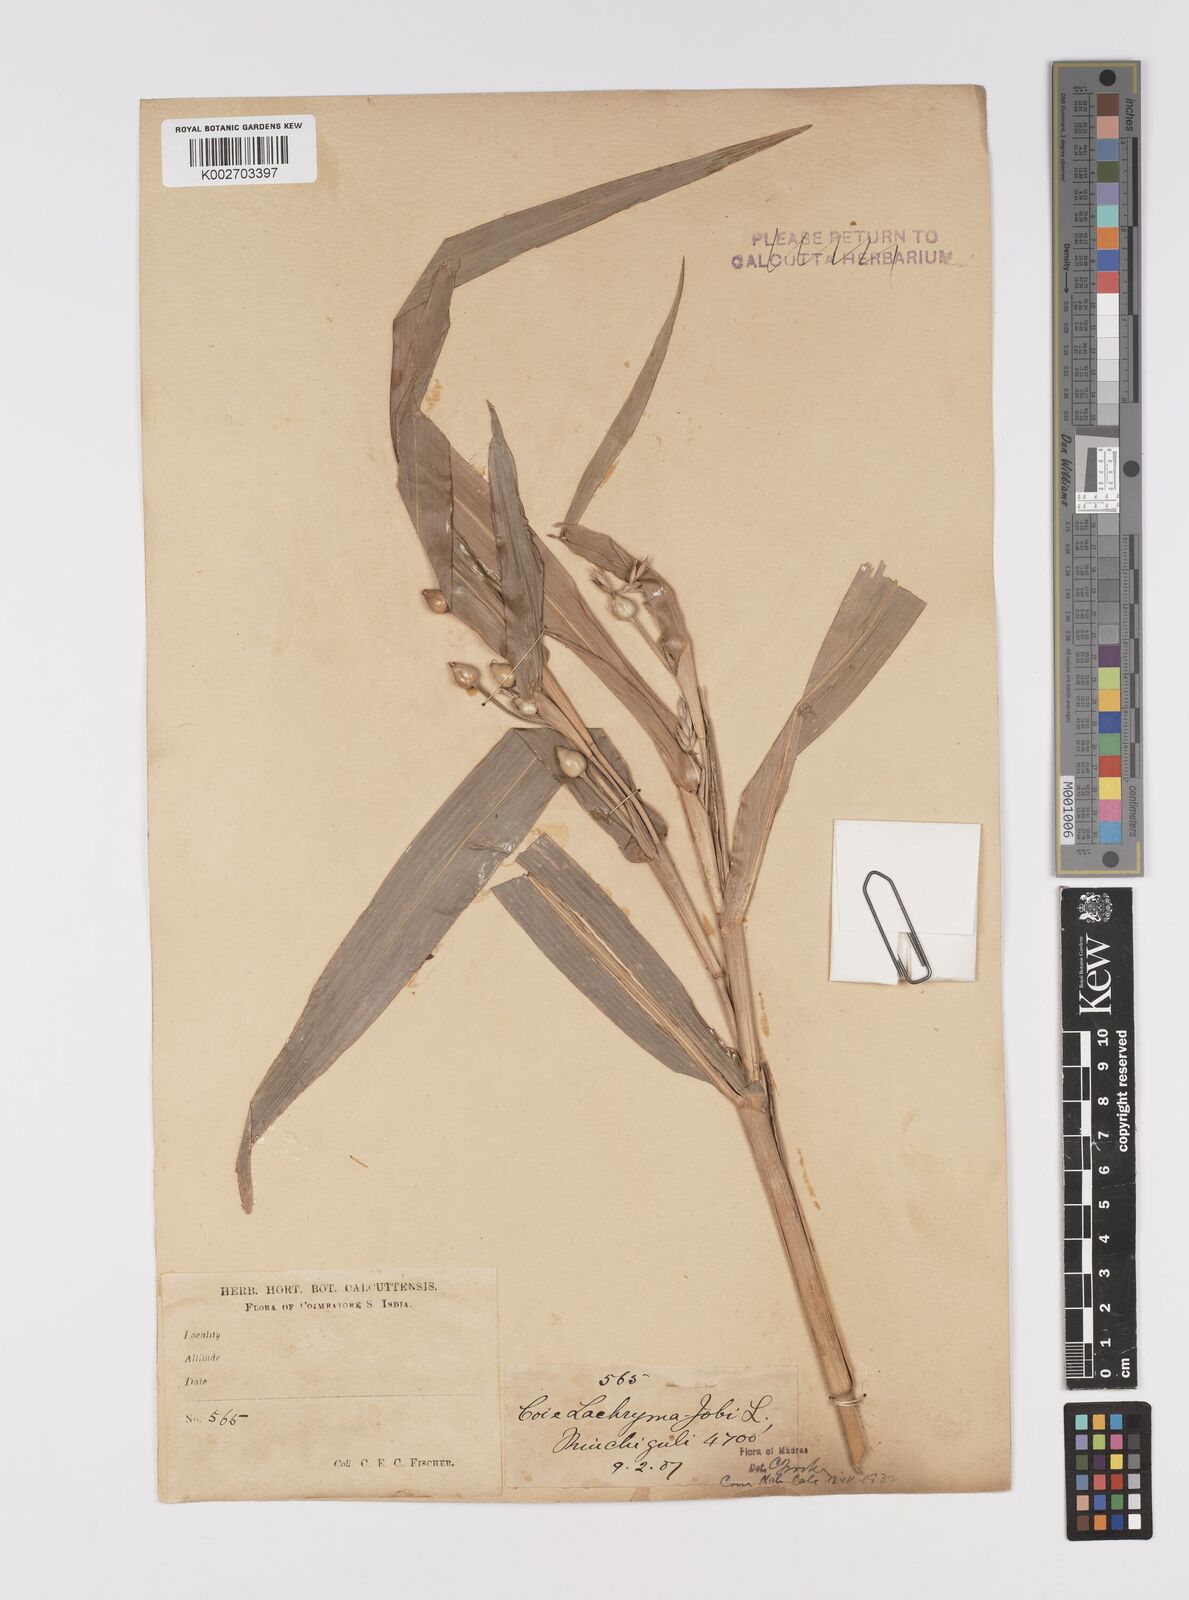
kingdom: Plantae
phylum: Tracheophyta
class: Liliopsida
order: Poales
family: Poaceae
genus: Coix
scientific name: Coix lacryma-jobi
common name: Job's tears
